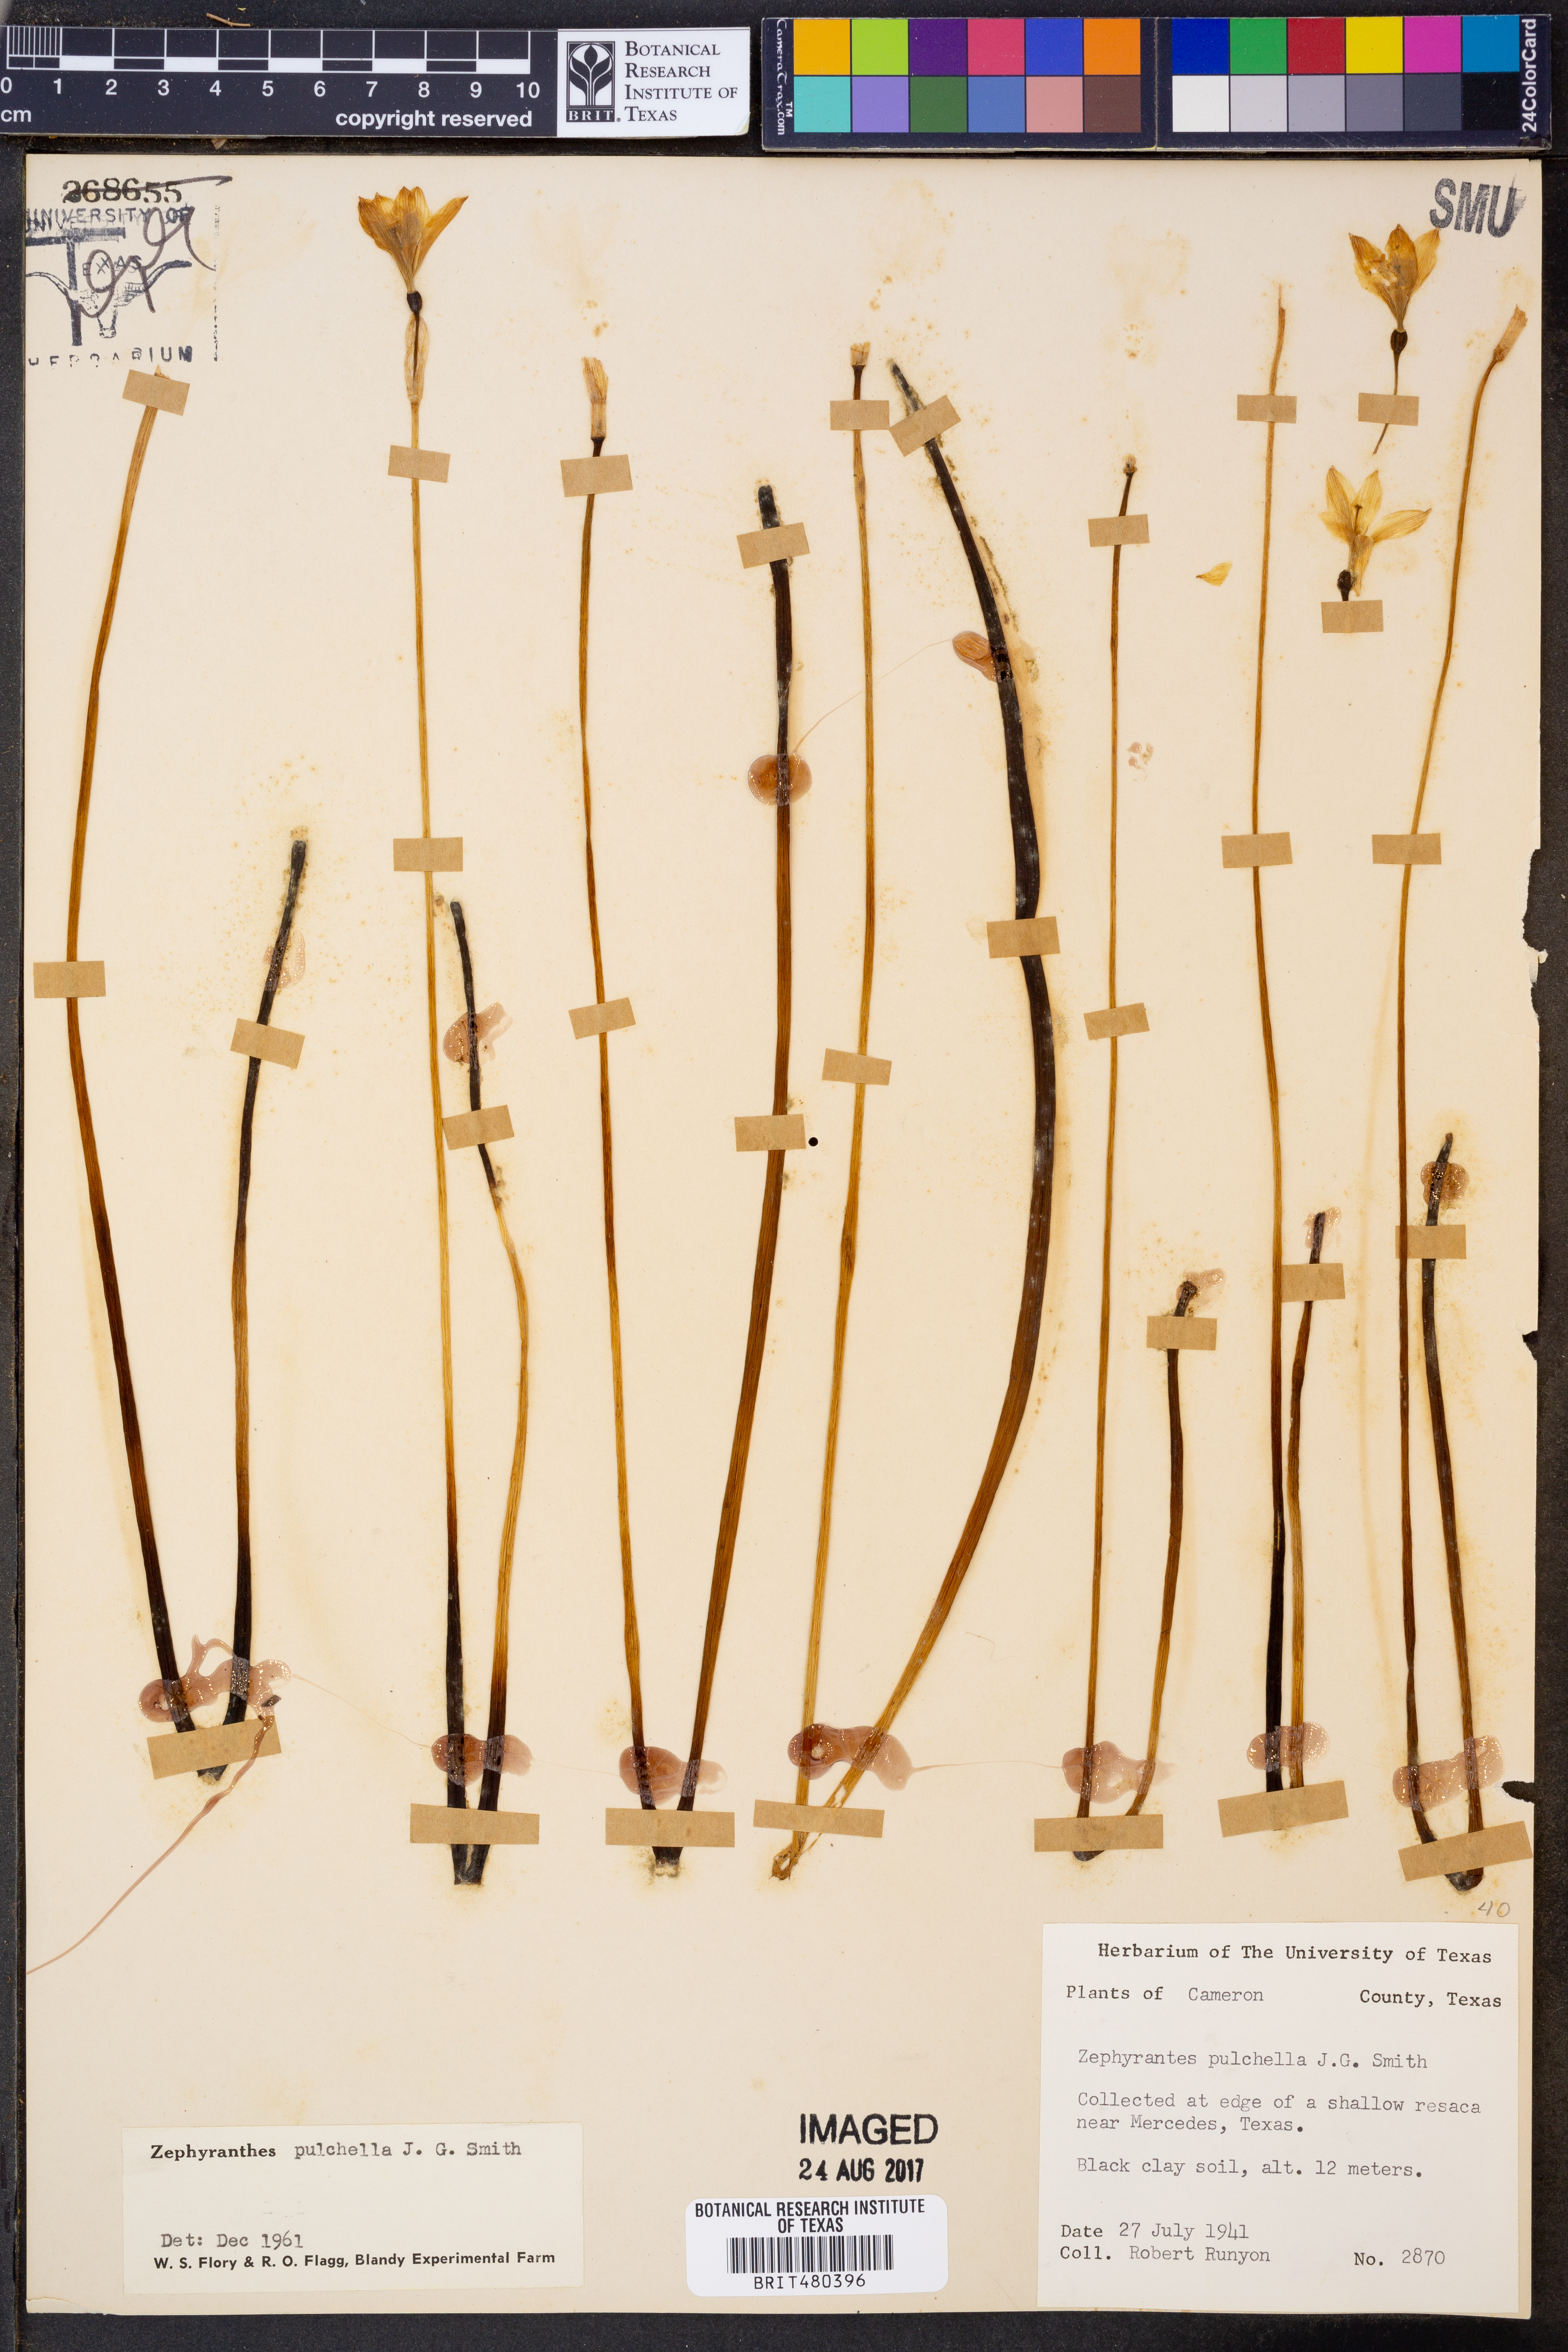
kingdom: Plantae
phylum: Tracheophyta
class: Liliopsida
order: Asparagales
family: Amaryllidaceae
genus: Zephyranthes
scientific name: Zephyranthes pulchella
